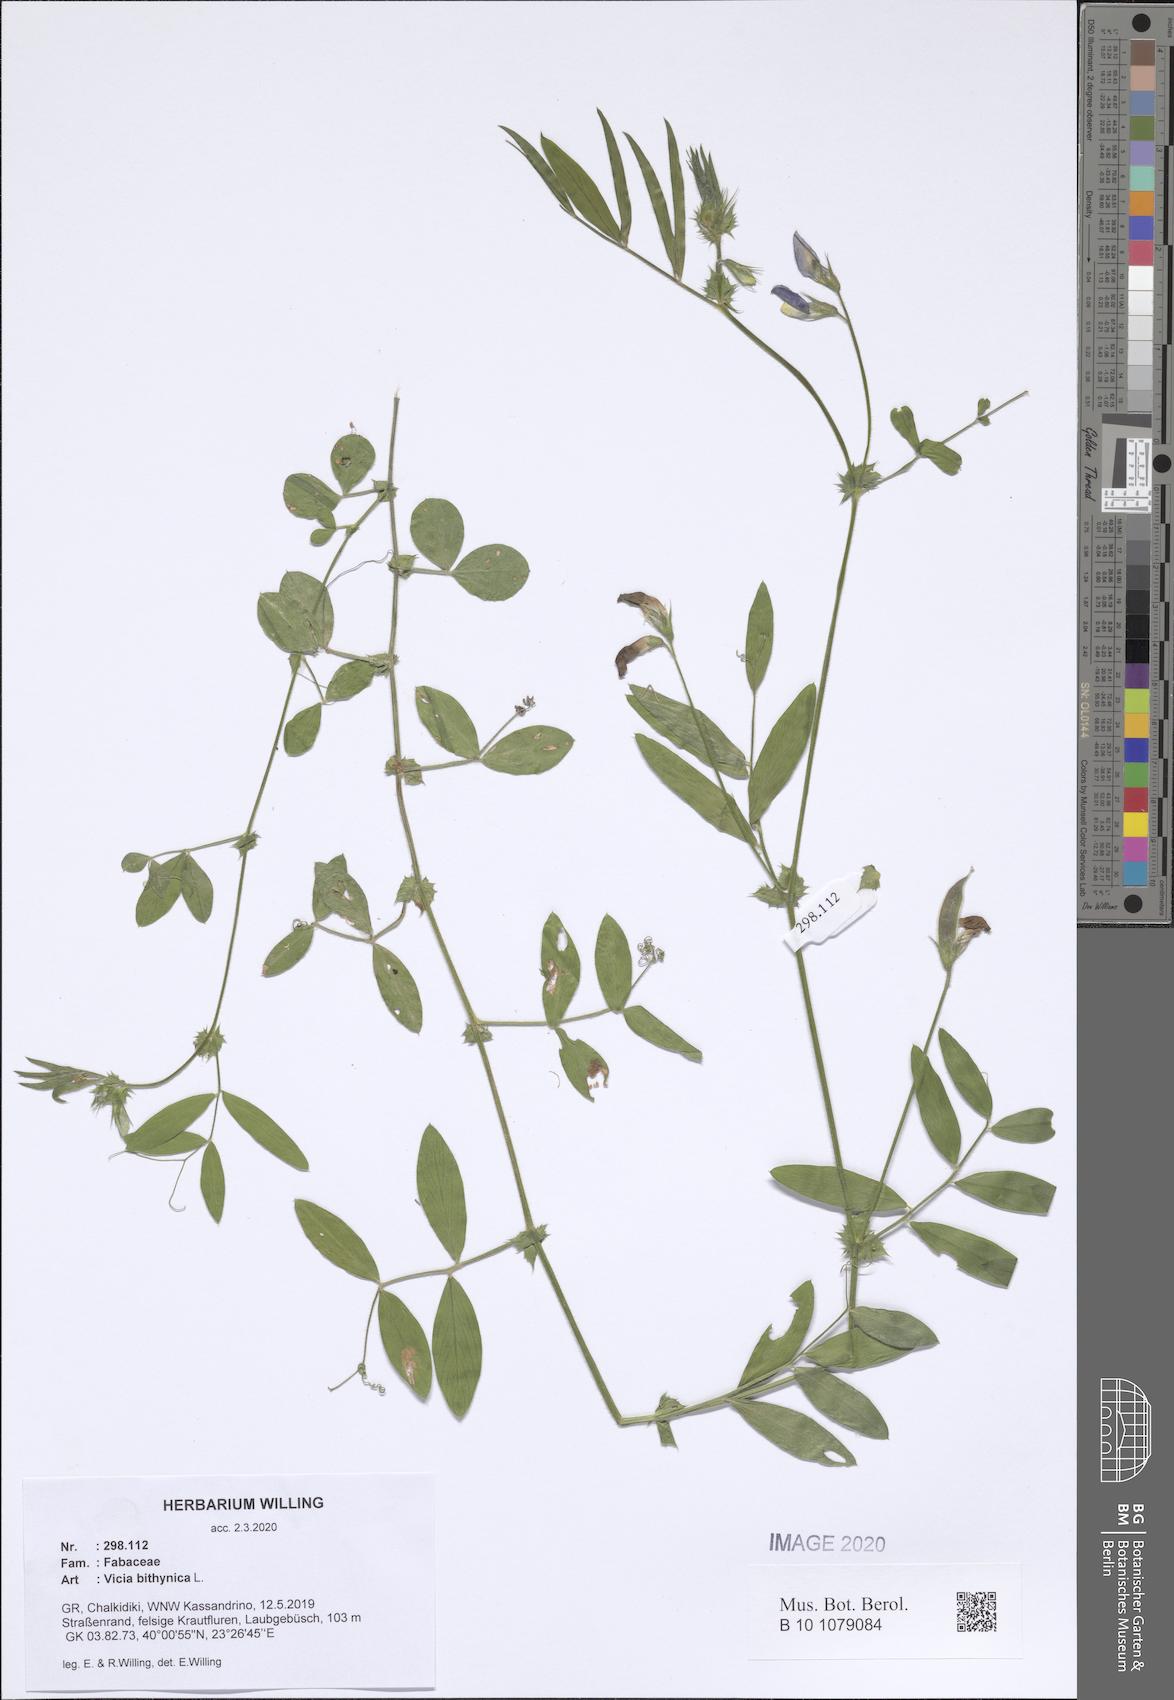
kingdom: Plantae
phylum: Tracheophyta
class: Magnoliopsida
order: Fabales
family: Fabaceae
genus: Vicia
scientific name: Vicia bithynica
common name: Bithynian vetch
